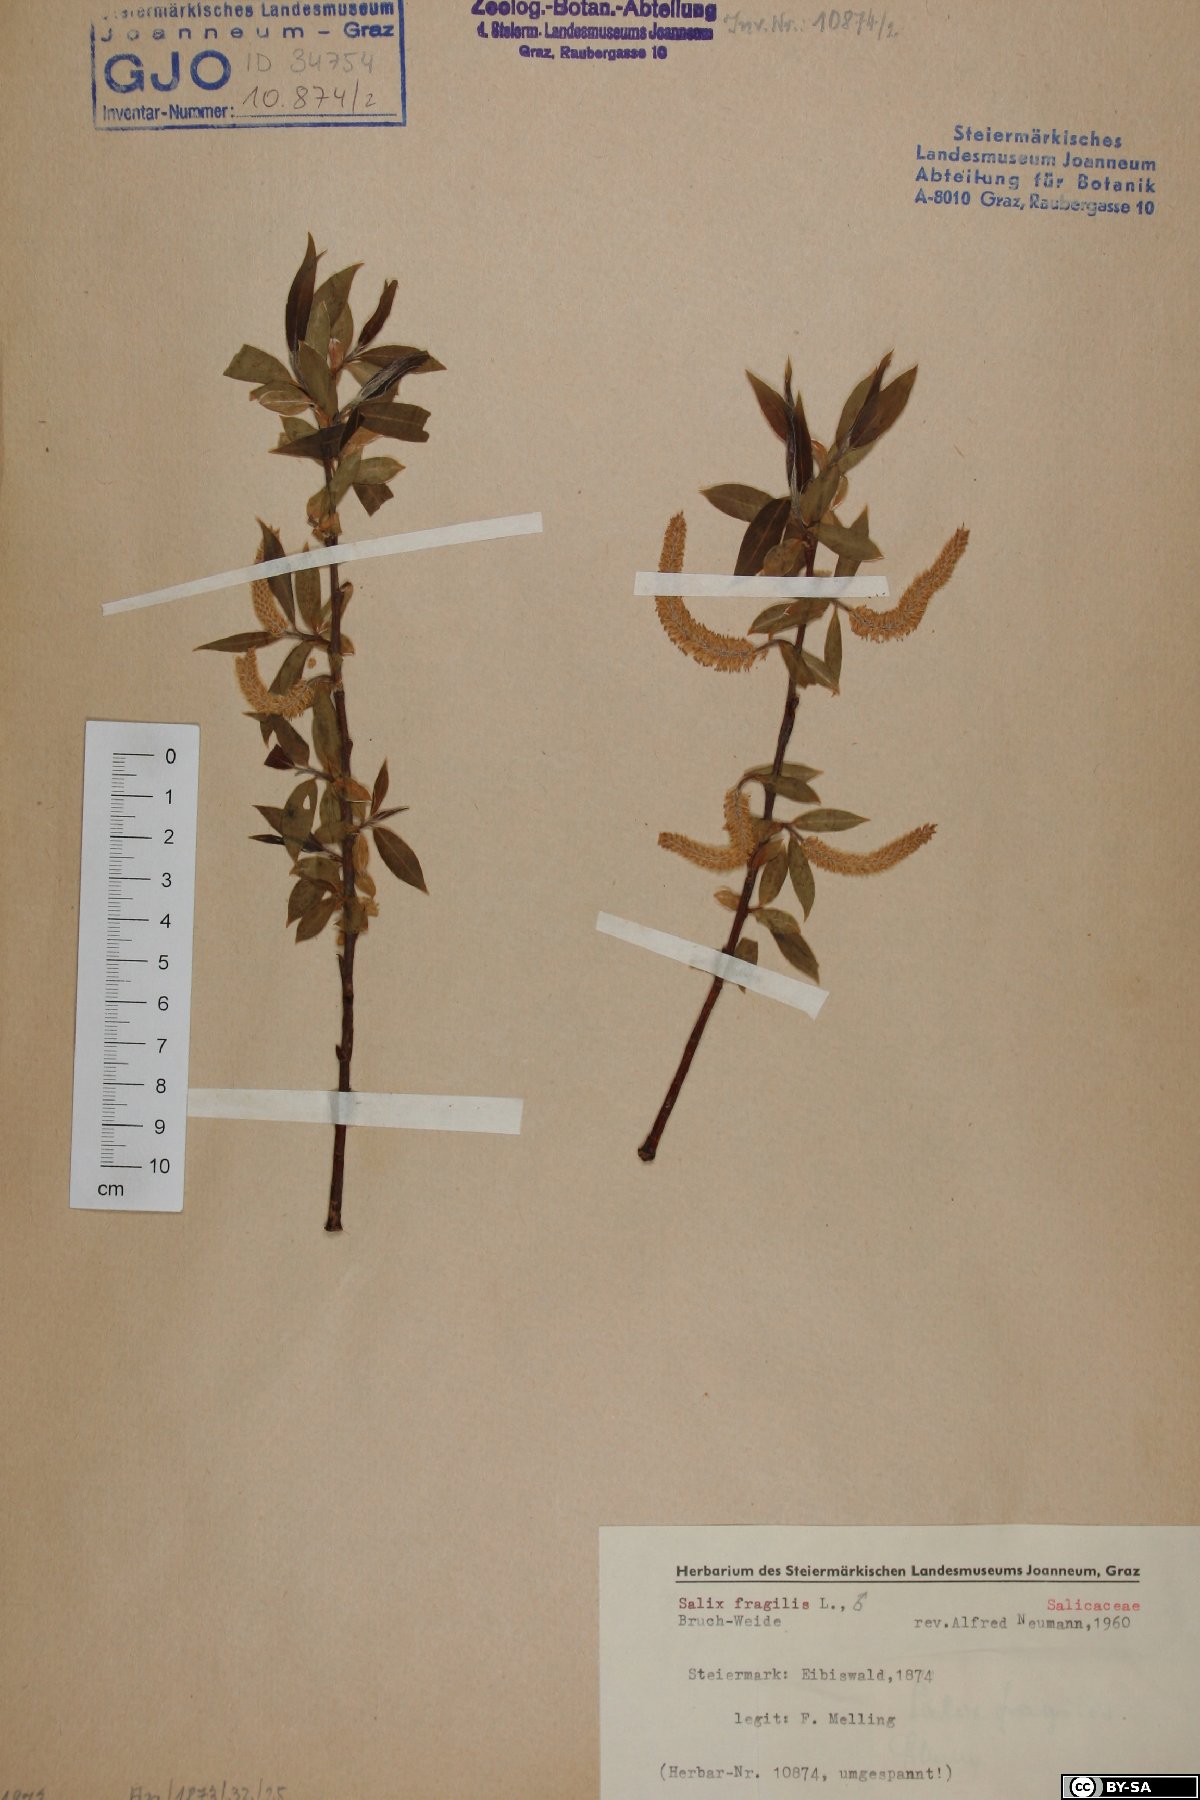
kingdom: Plantae
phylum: Tracheophyta
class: Magnoliopsida
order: Malpighiales
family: Salicaceae
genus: Salix
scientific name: Salix fragilis
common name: Crack willow
